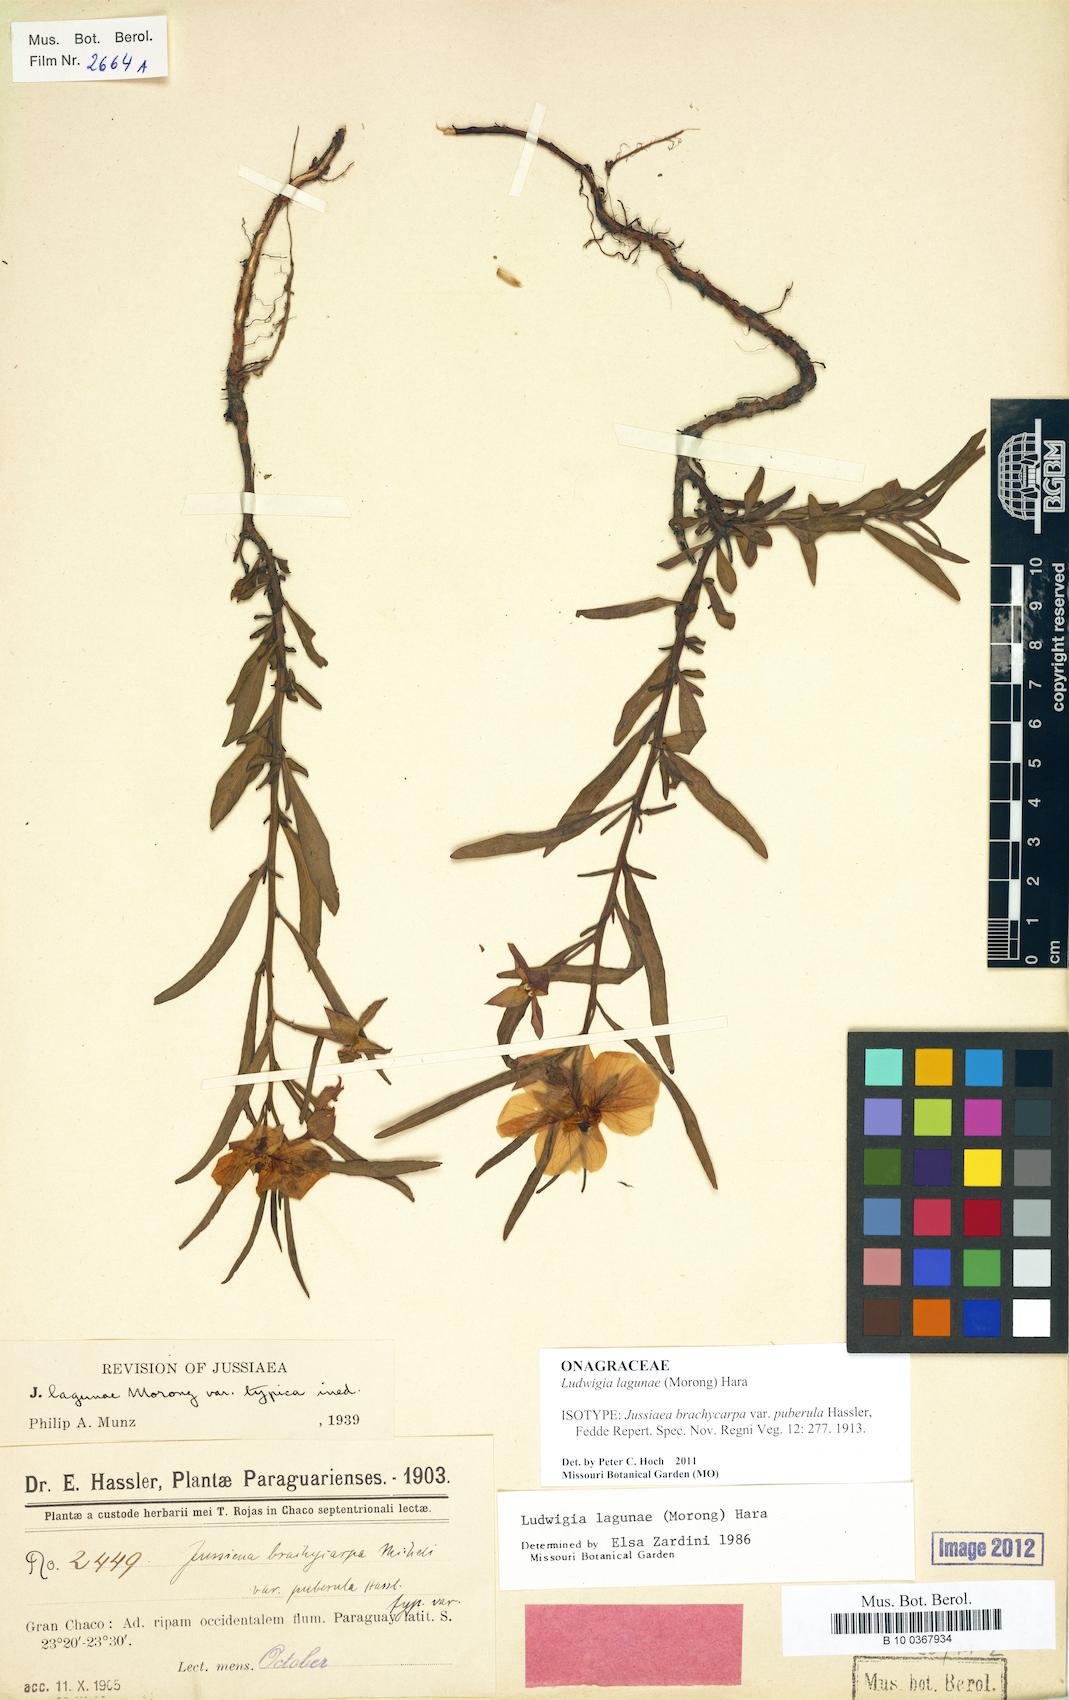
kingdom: Plantae
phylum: Tracheophyta
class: Magnoliopsida
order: Myrtales
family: Onagraceae
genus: Ludwigia
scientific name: Ludwigia lagunae
